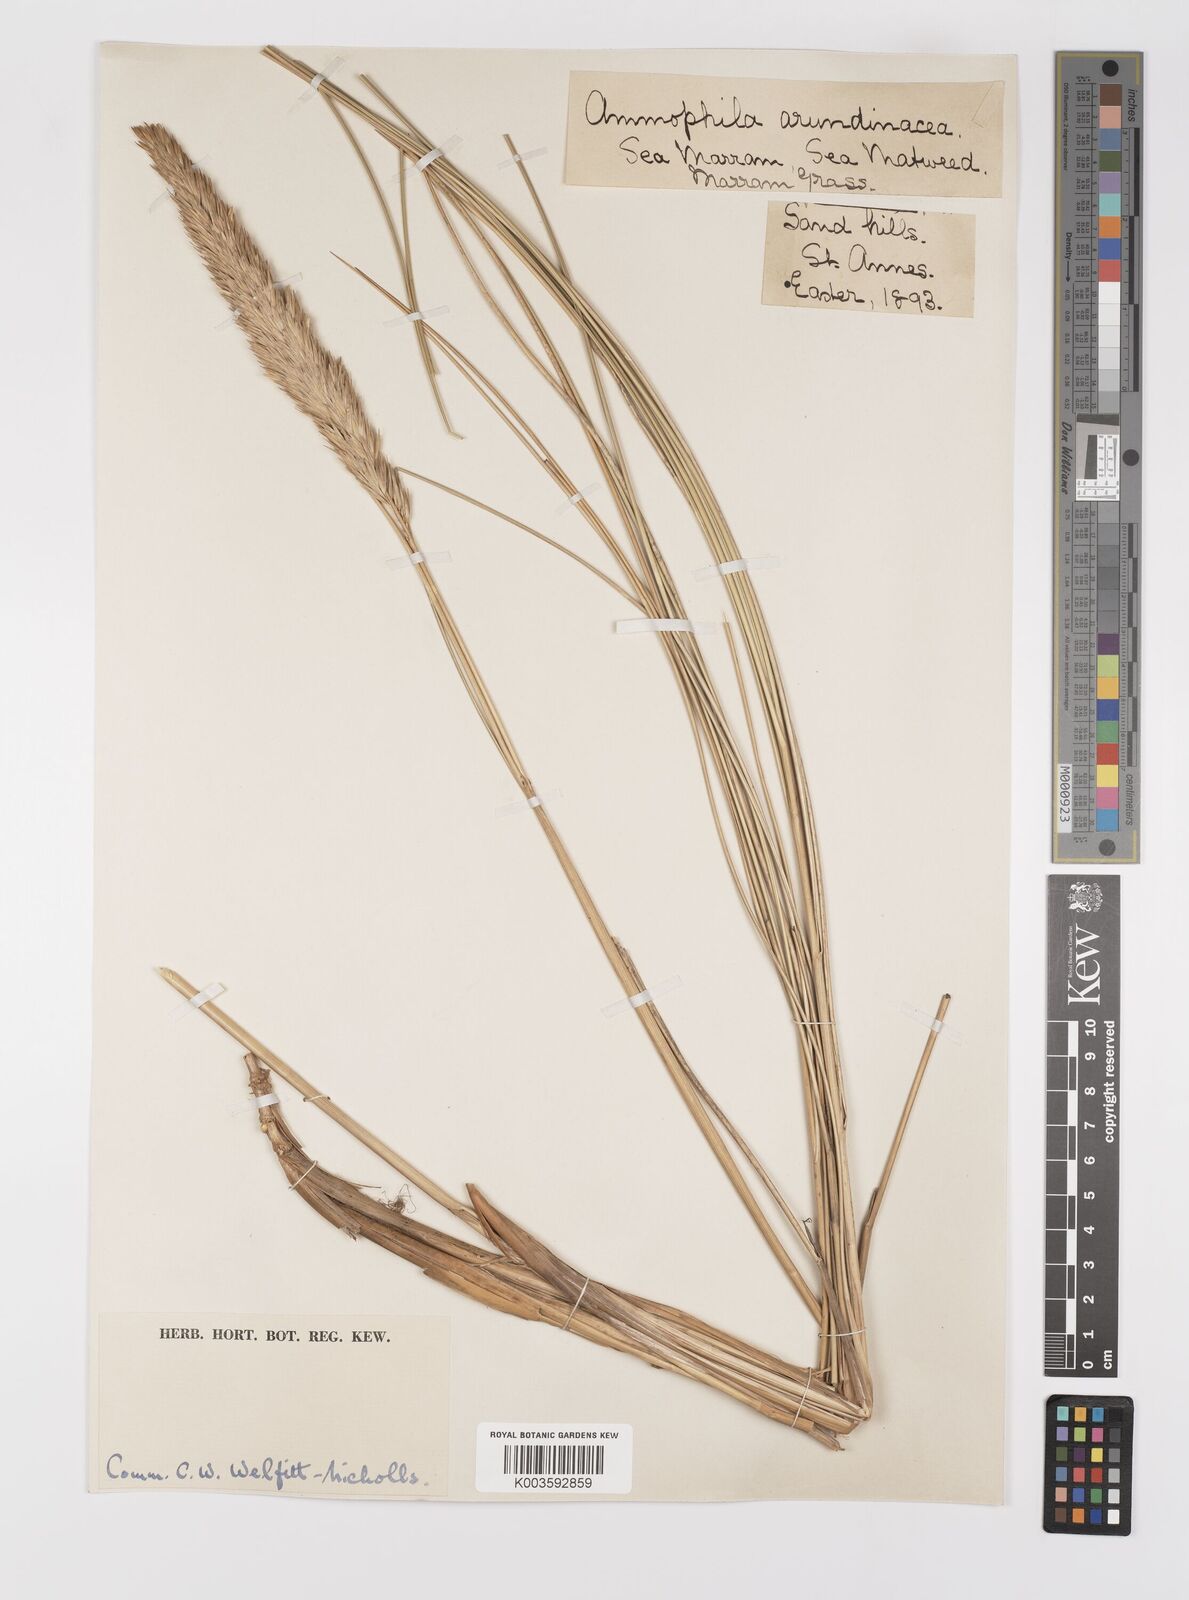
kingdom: Plantae
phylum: Tracheophyta
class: Liliopsida
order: Poales
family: Poaceae
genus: Calamagrostis
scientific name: Calamagrostis arenaria
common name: European beachgrass
